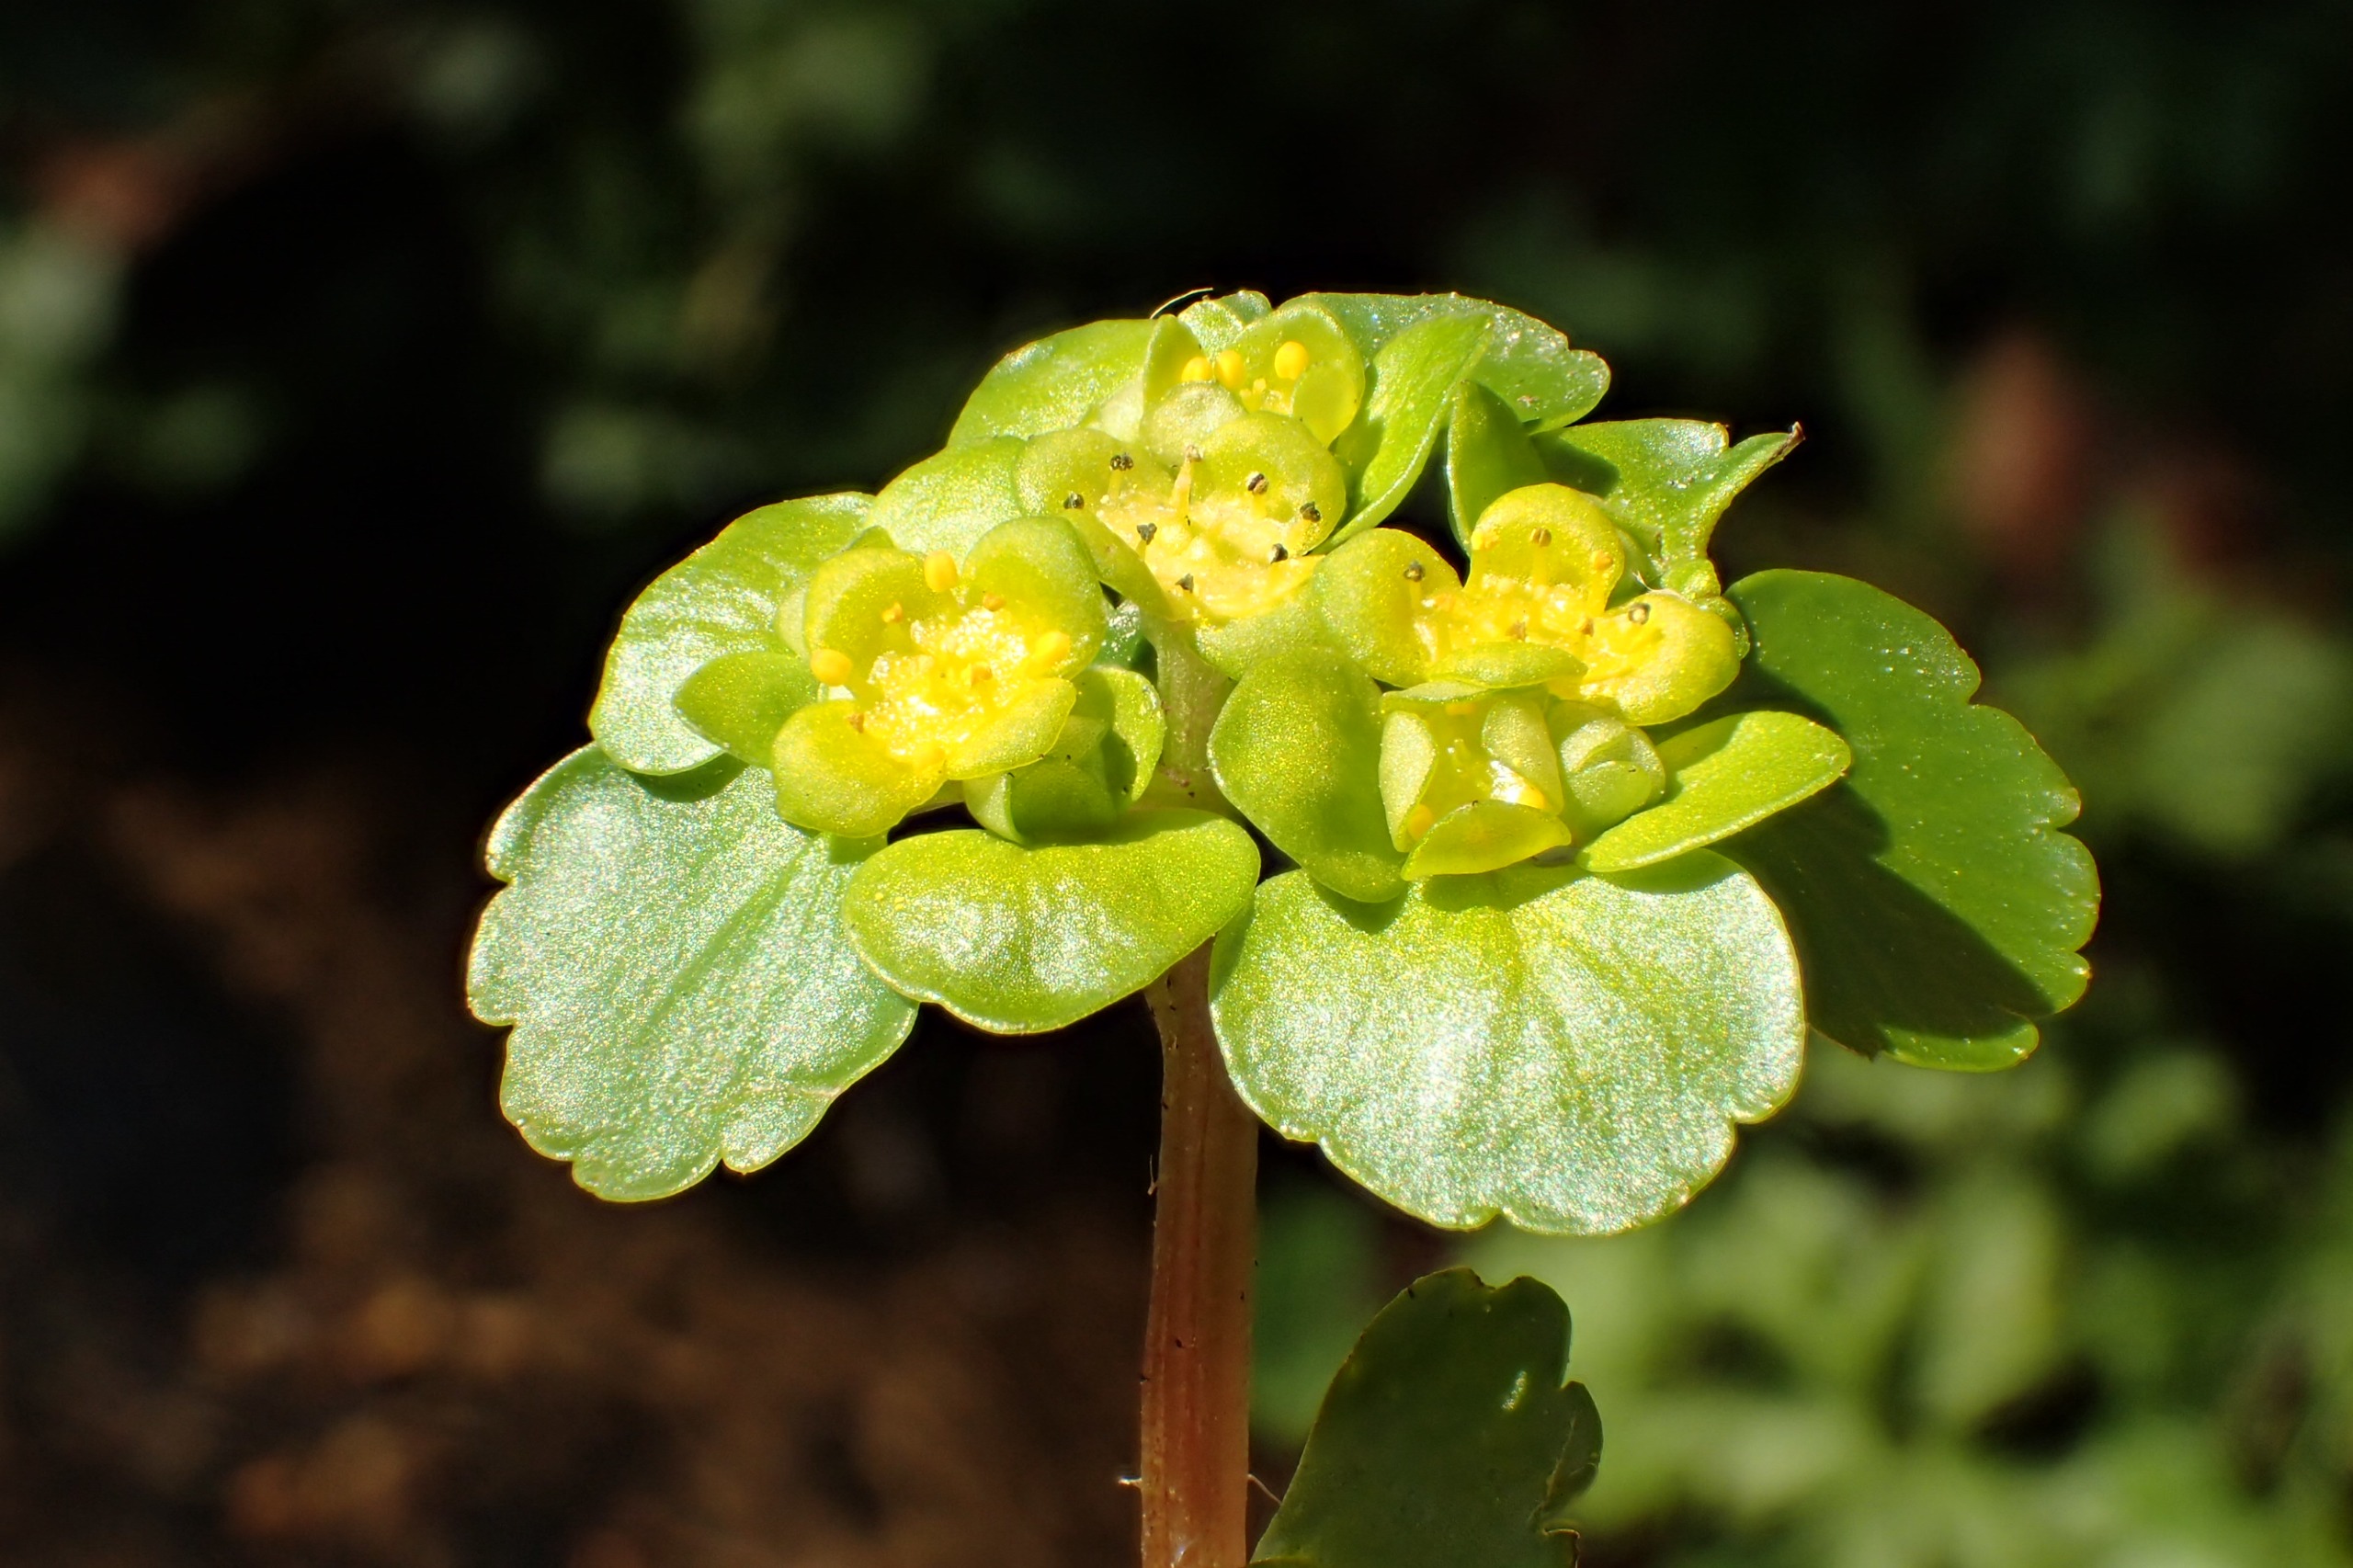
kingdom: Plantae
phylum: Tracheophyta
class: Magnoliopsida
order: Saxifragales
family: Saxifragaceae
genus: Chrysosplenium
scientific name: Chrysosplenium alternifolium
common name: Almindelig milturt
